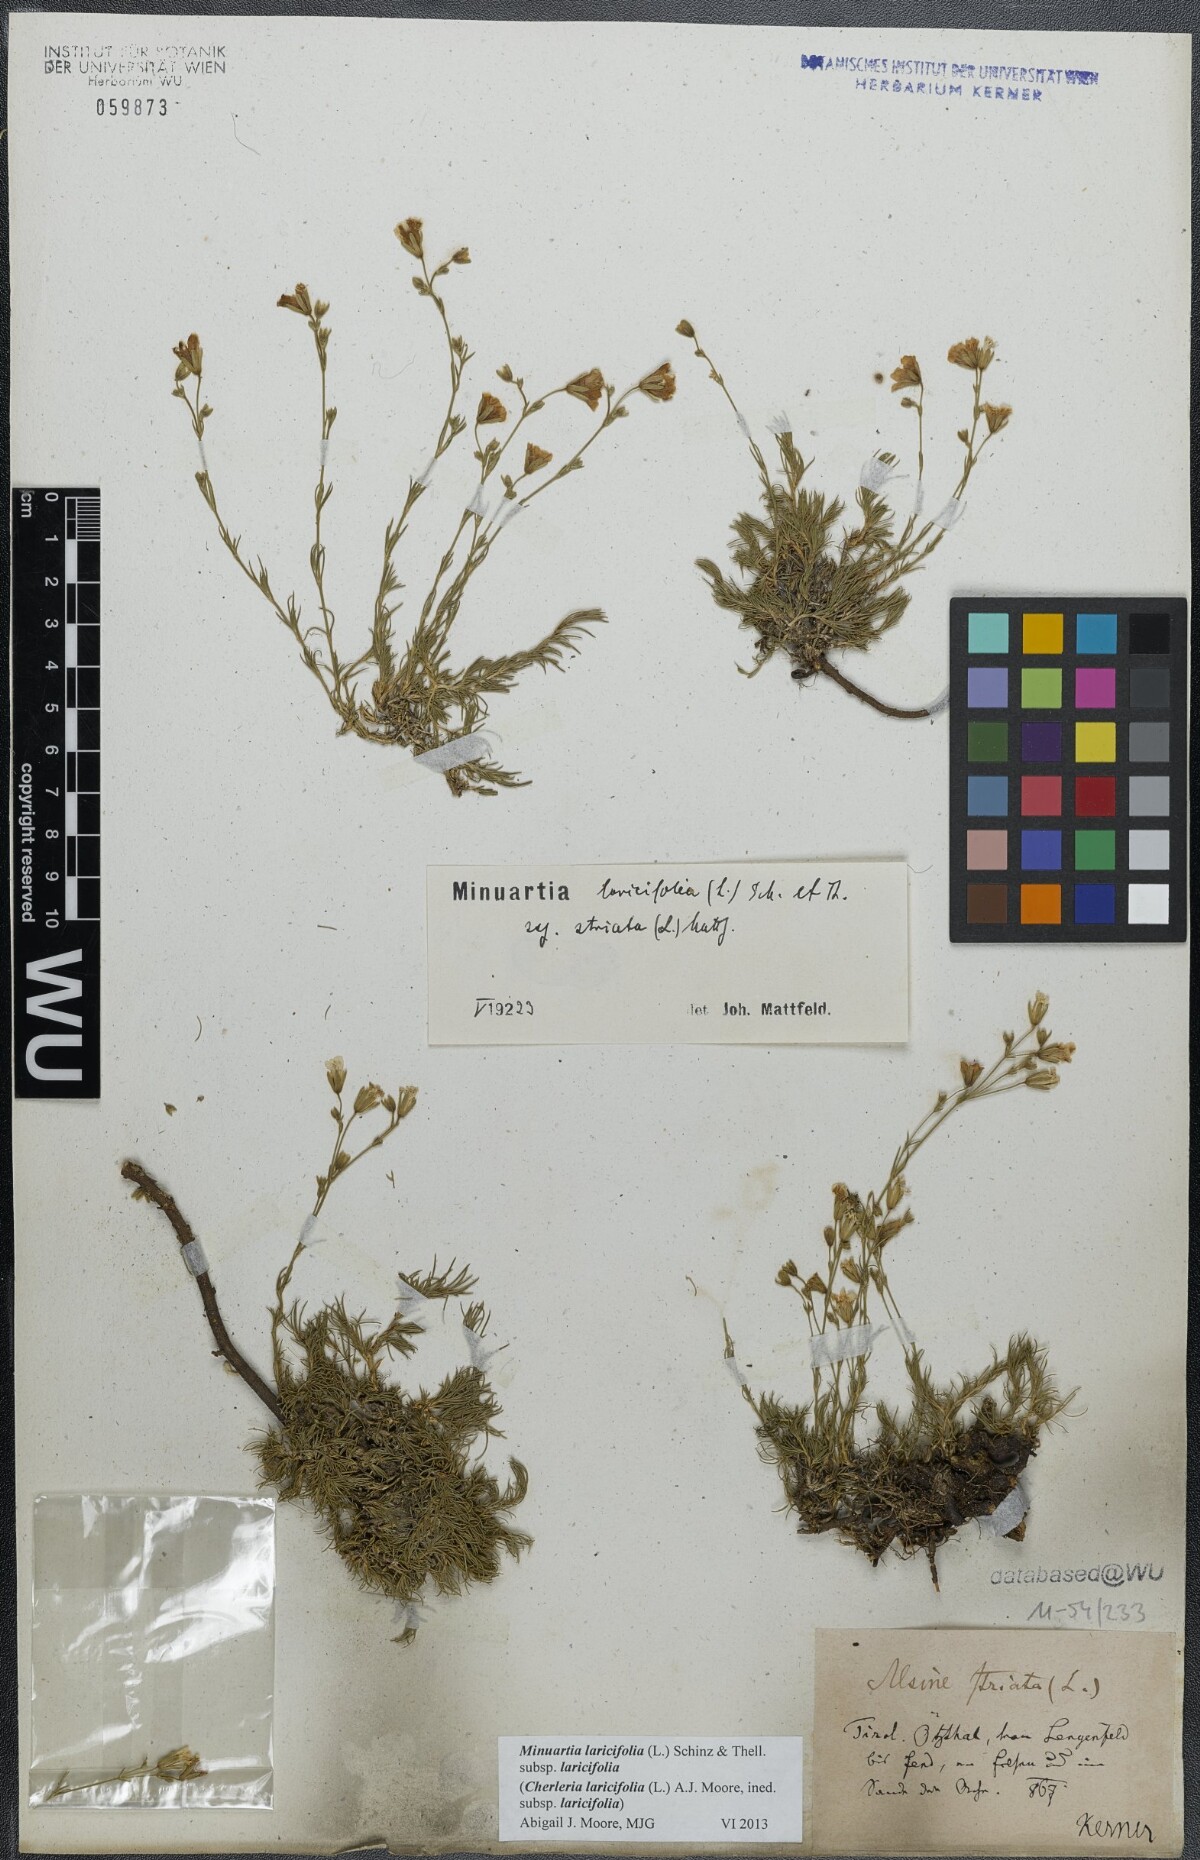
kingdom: Plantae
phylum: Tracheophyta
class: Magnoliopsida
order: Caryophyllales
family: Caryophyllaceae
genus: Cherleria
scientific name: Cherleria laricifolia
